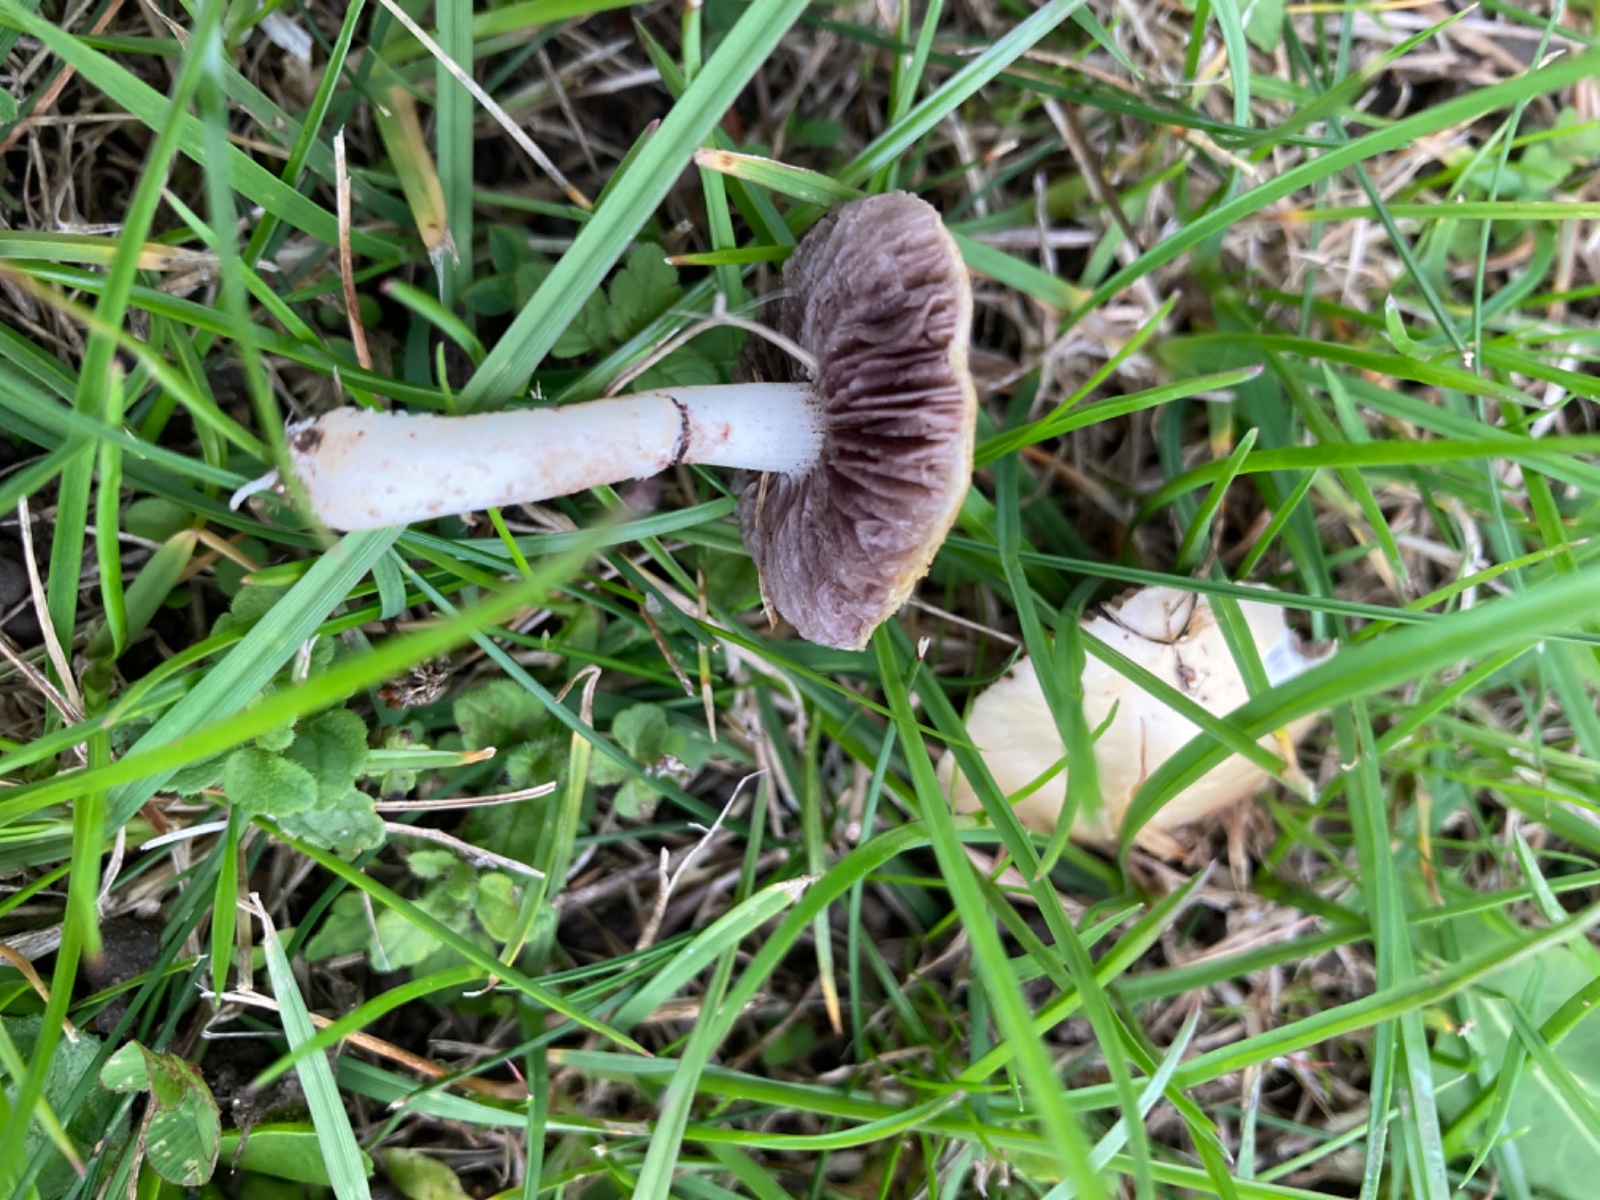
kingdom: Fungi
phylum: Basidiomycota
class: Agaricomycetes
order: Agaricales
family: Hymenogastraceae
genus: Psilocybe
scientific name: Psilocybe coronilla
